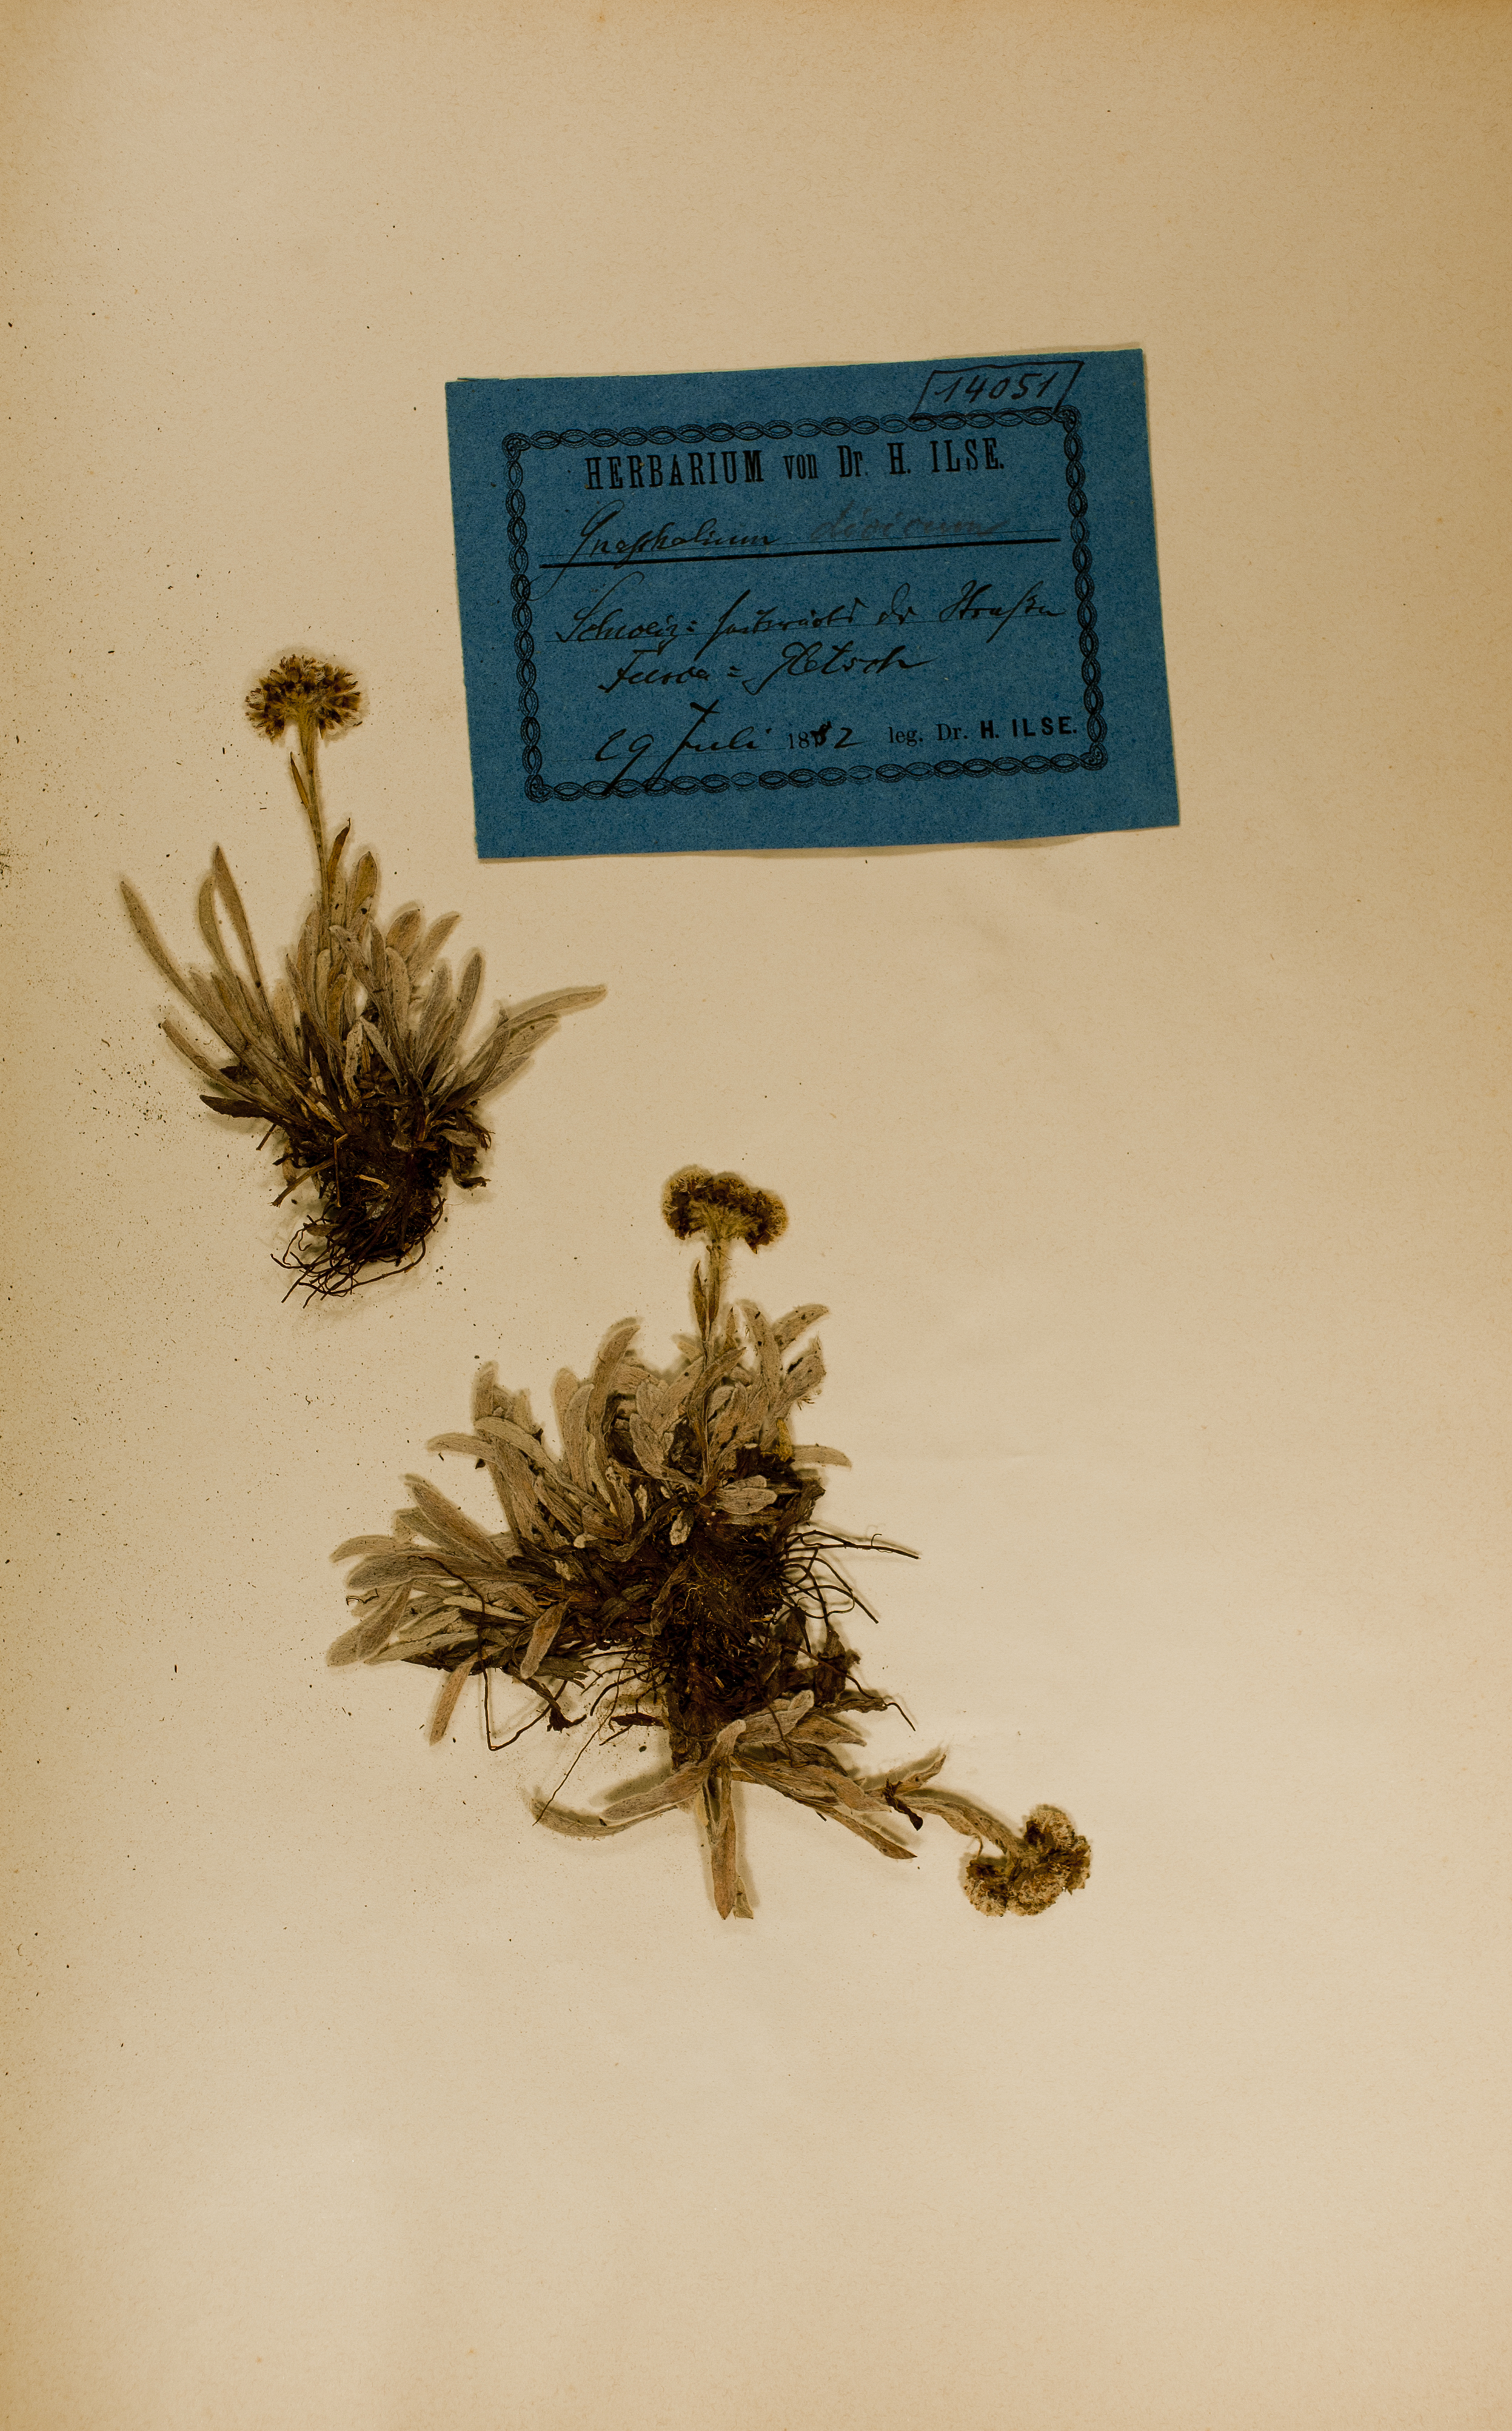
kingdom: Plantae
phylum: Tracheophyta
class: Magnoliopsida
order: Asterales
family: Asteraceae
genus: Antennaria
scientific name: Antennaria dioica
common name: Mountain everlasting
